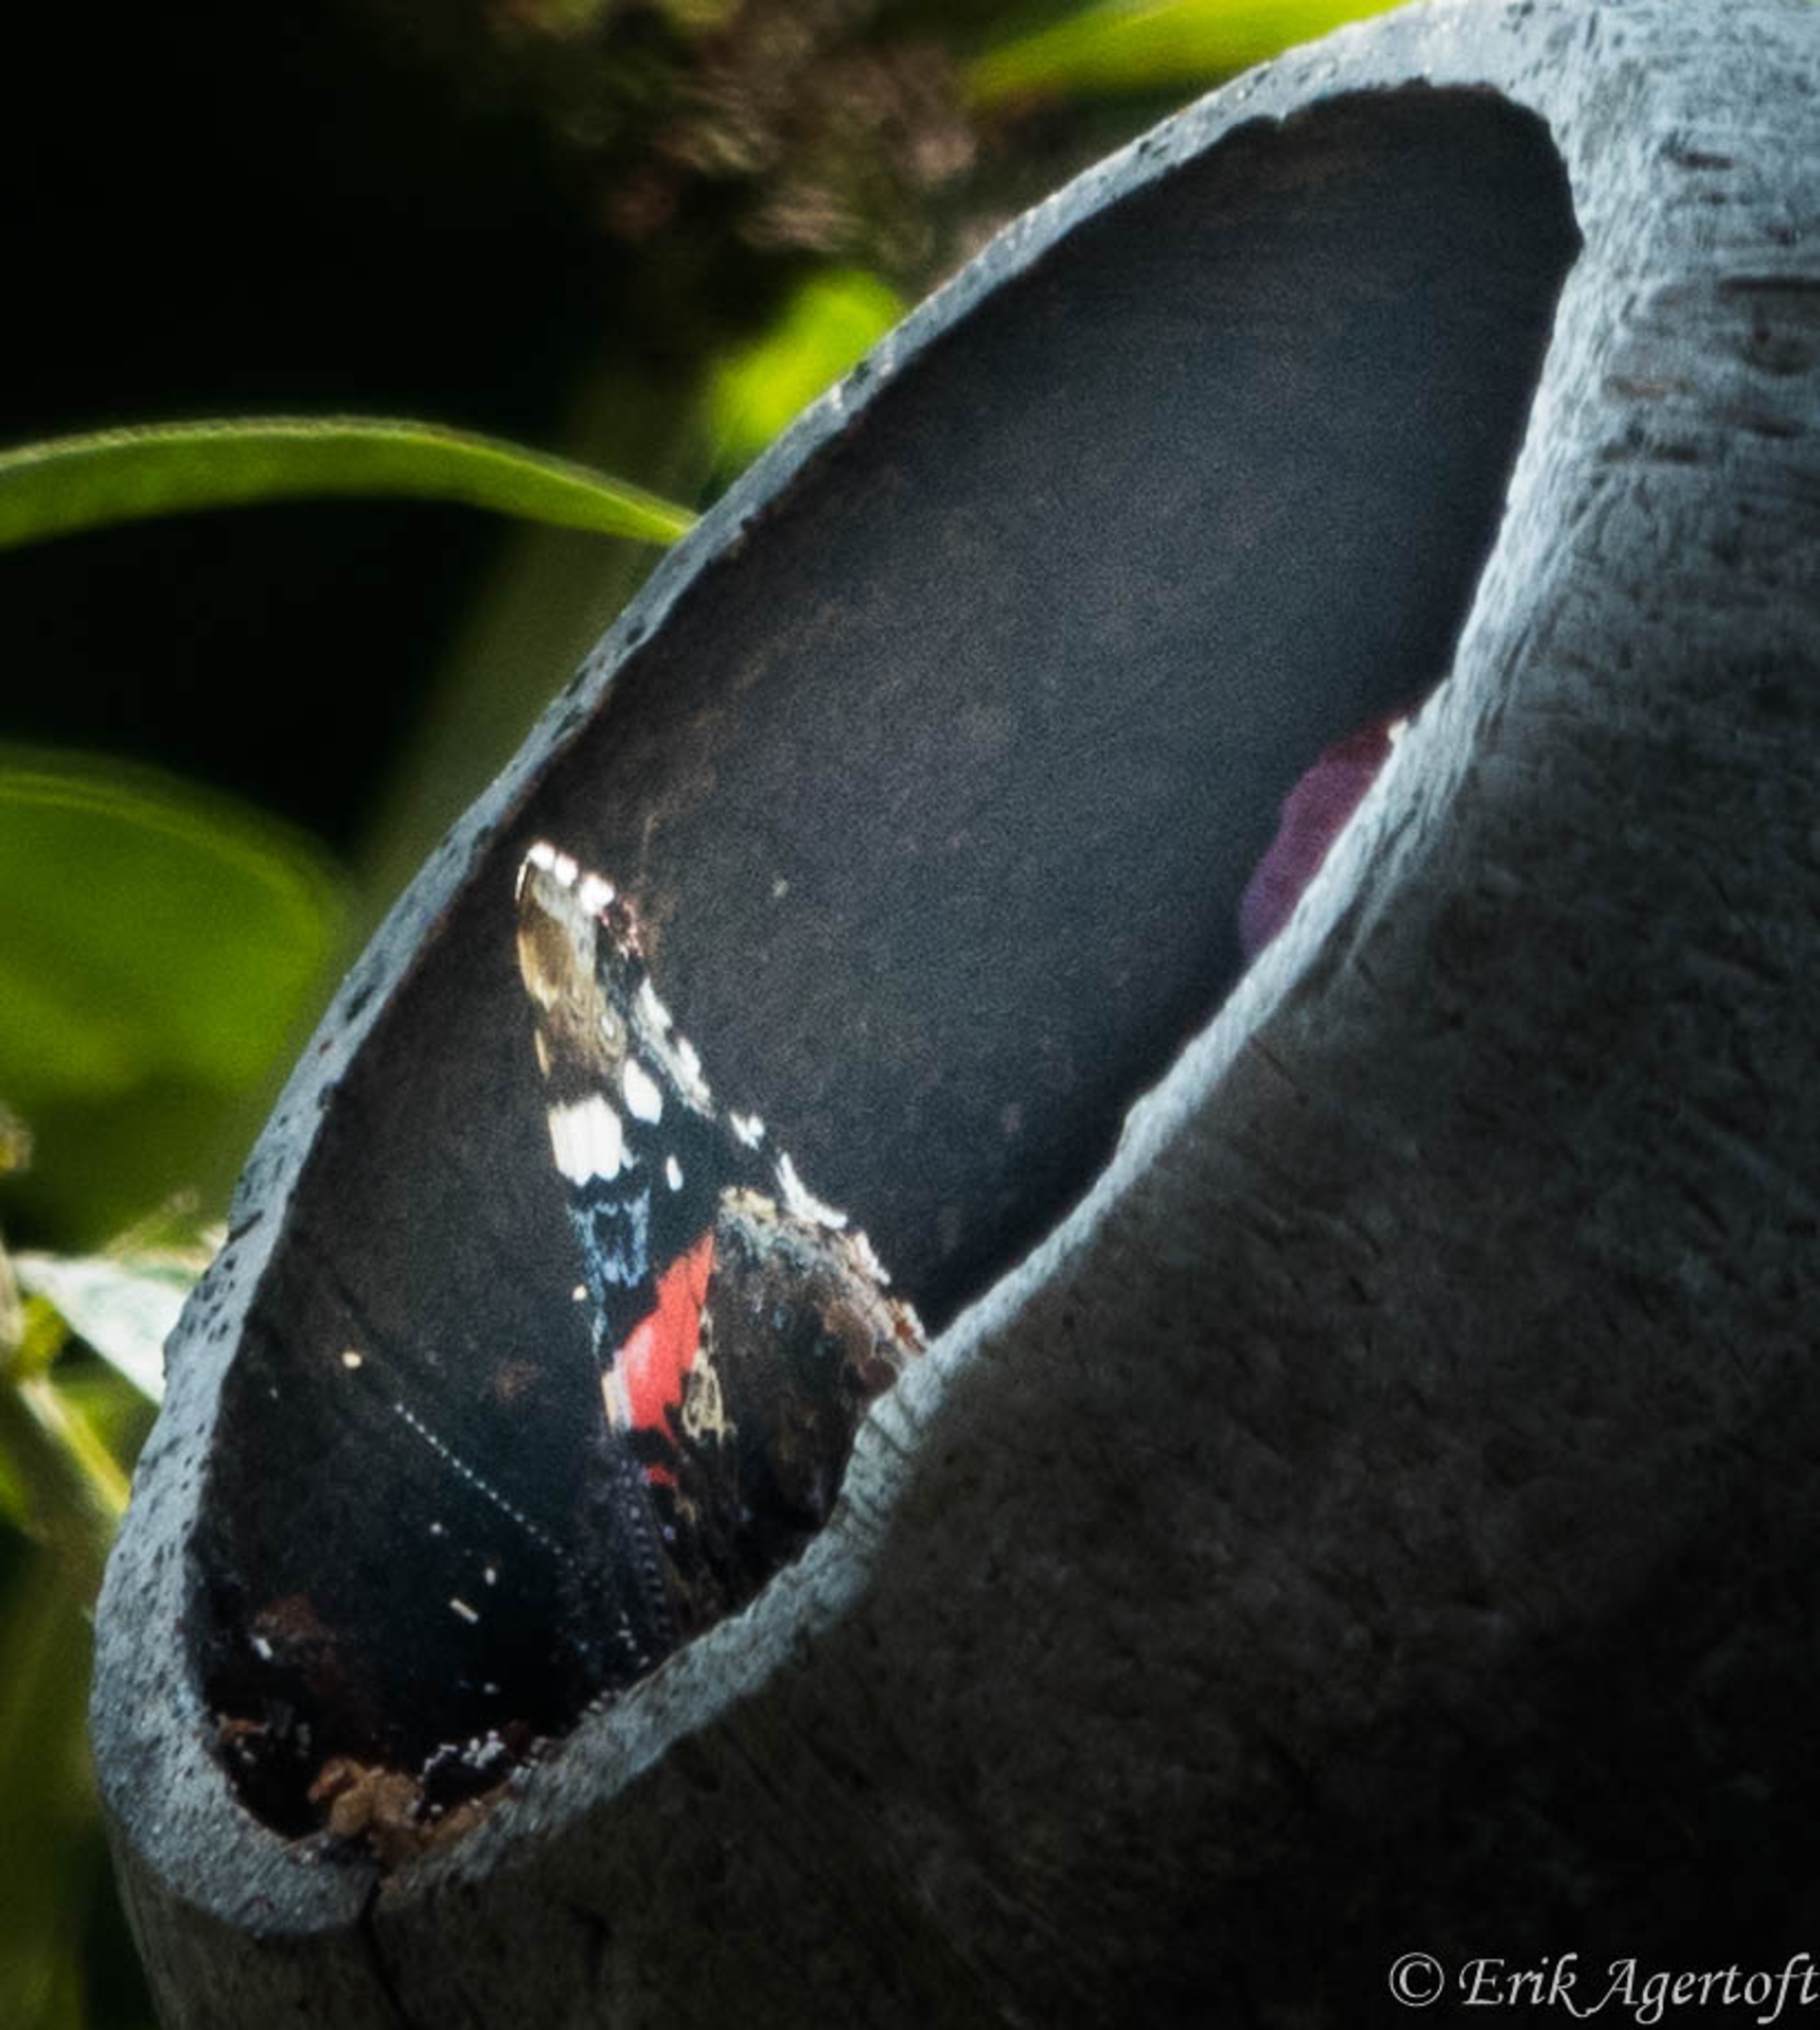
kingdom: Animalia
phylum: Arthropoda
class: Insecta
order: Lepidoptera
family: Nymphalidae
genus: Vanessa
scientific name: Vanessa atalanta
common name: Admiral
